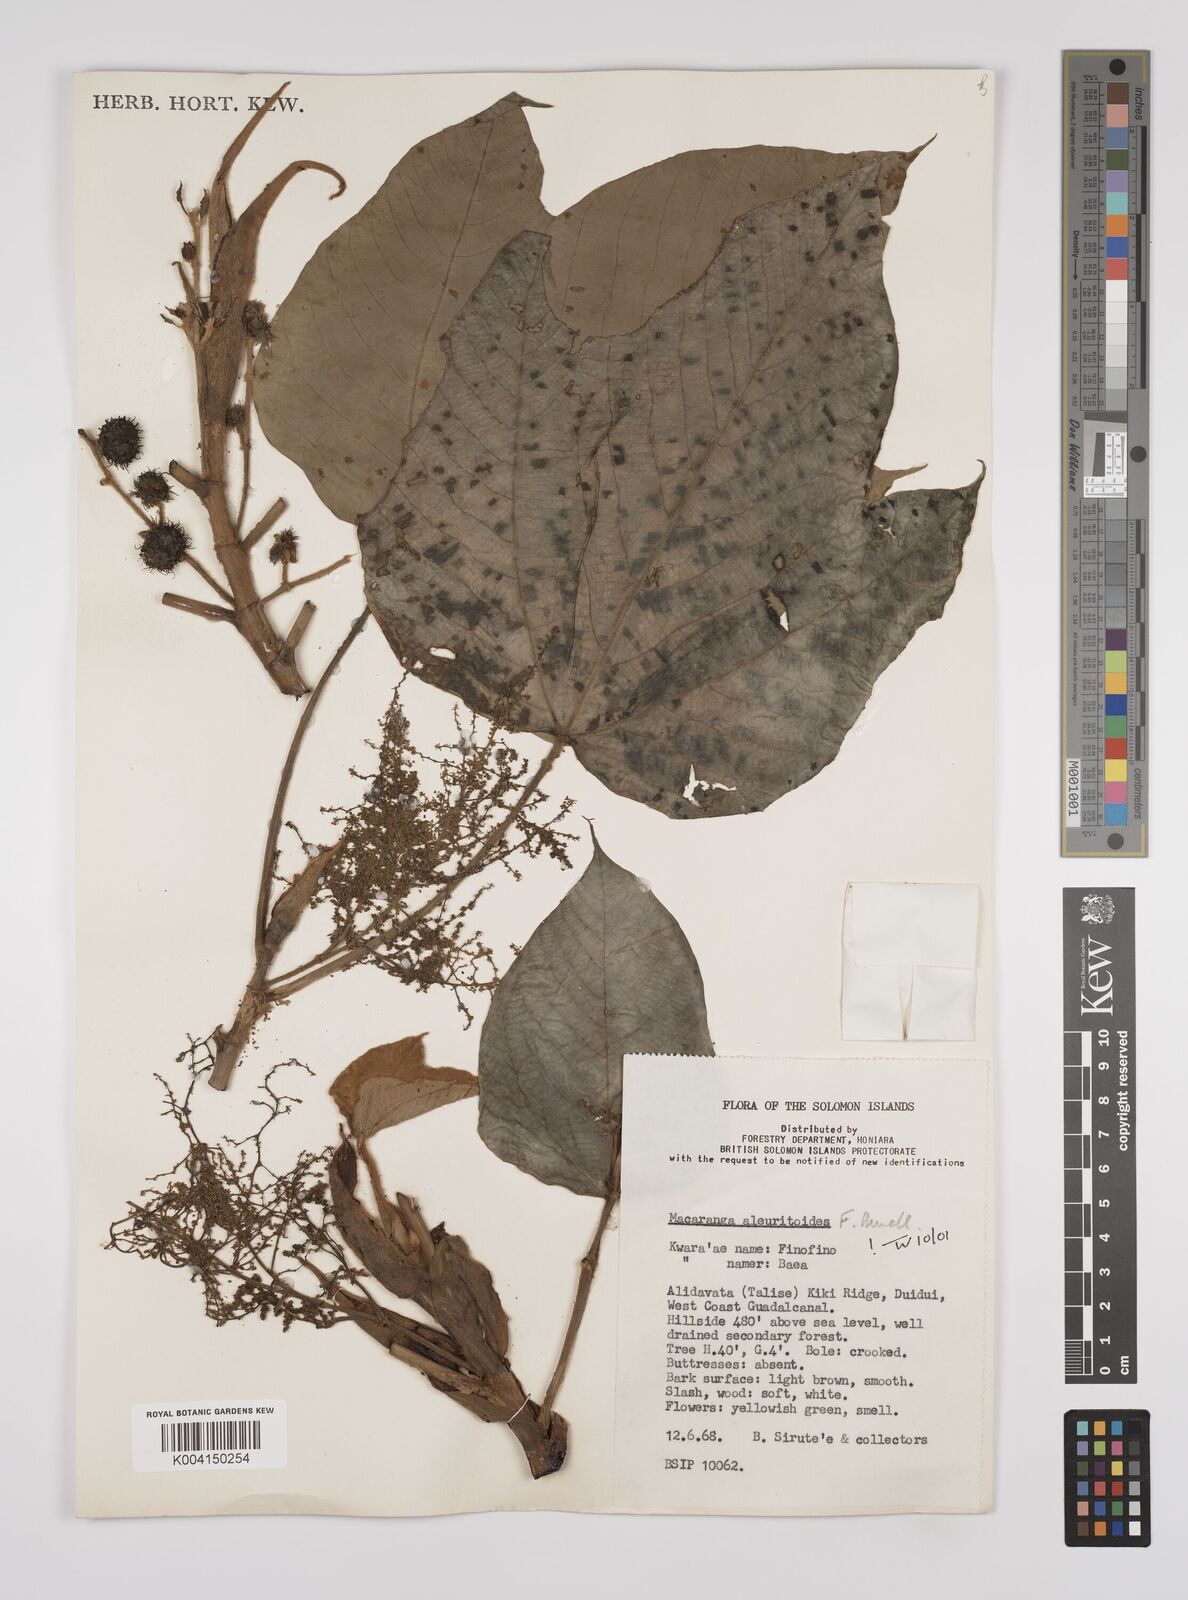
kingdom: Plantae
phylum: Tracheophyta
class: Magnoliopsida
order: Malpighiales
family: Euphorbiaceae
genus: Macaranga
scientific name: Macaranga aleuritoides
